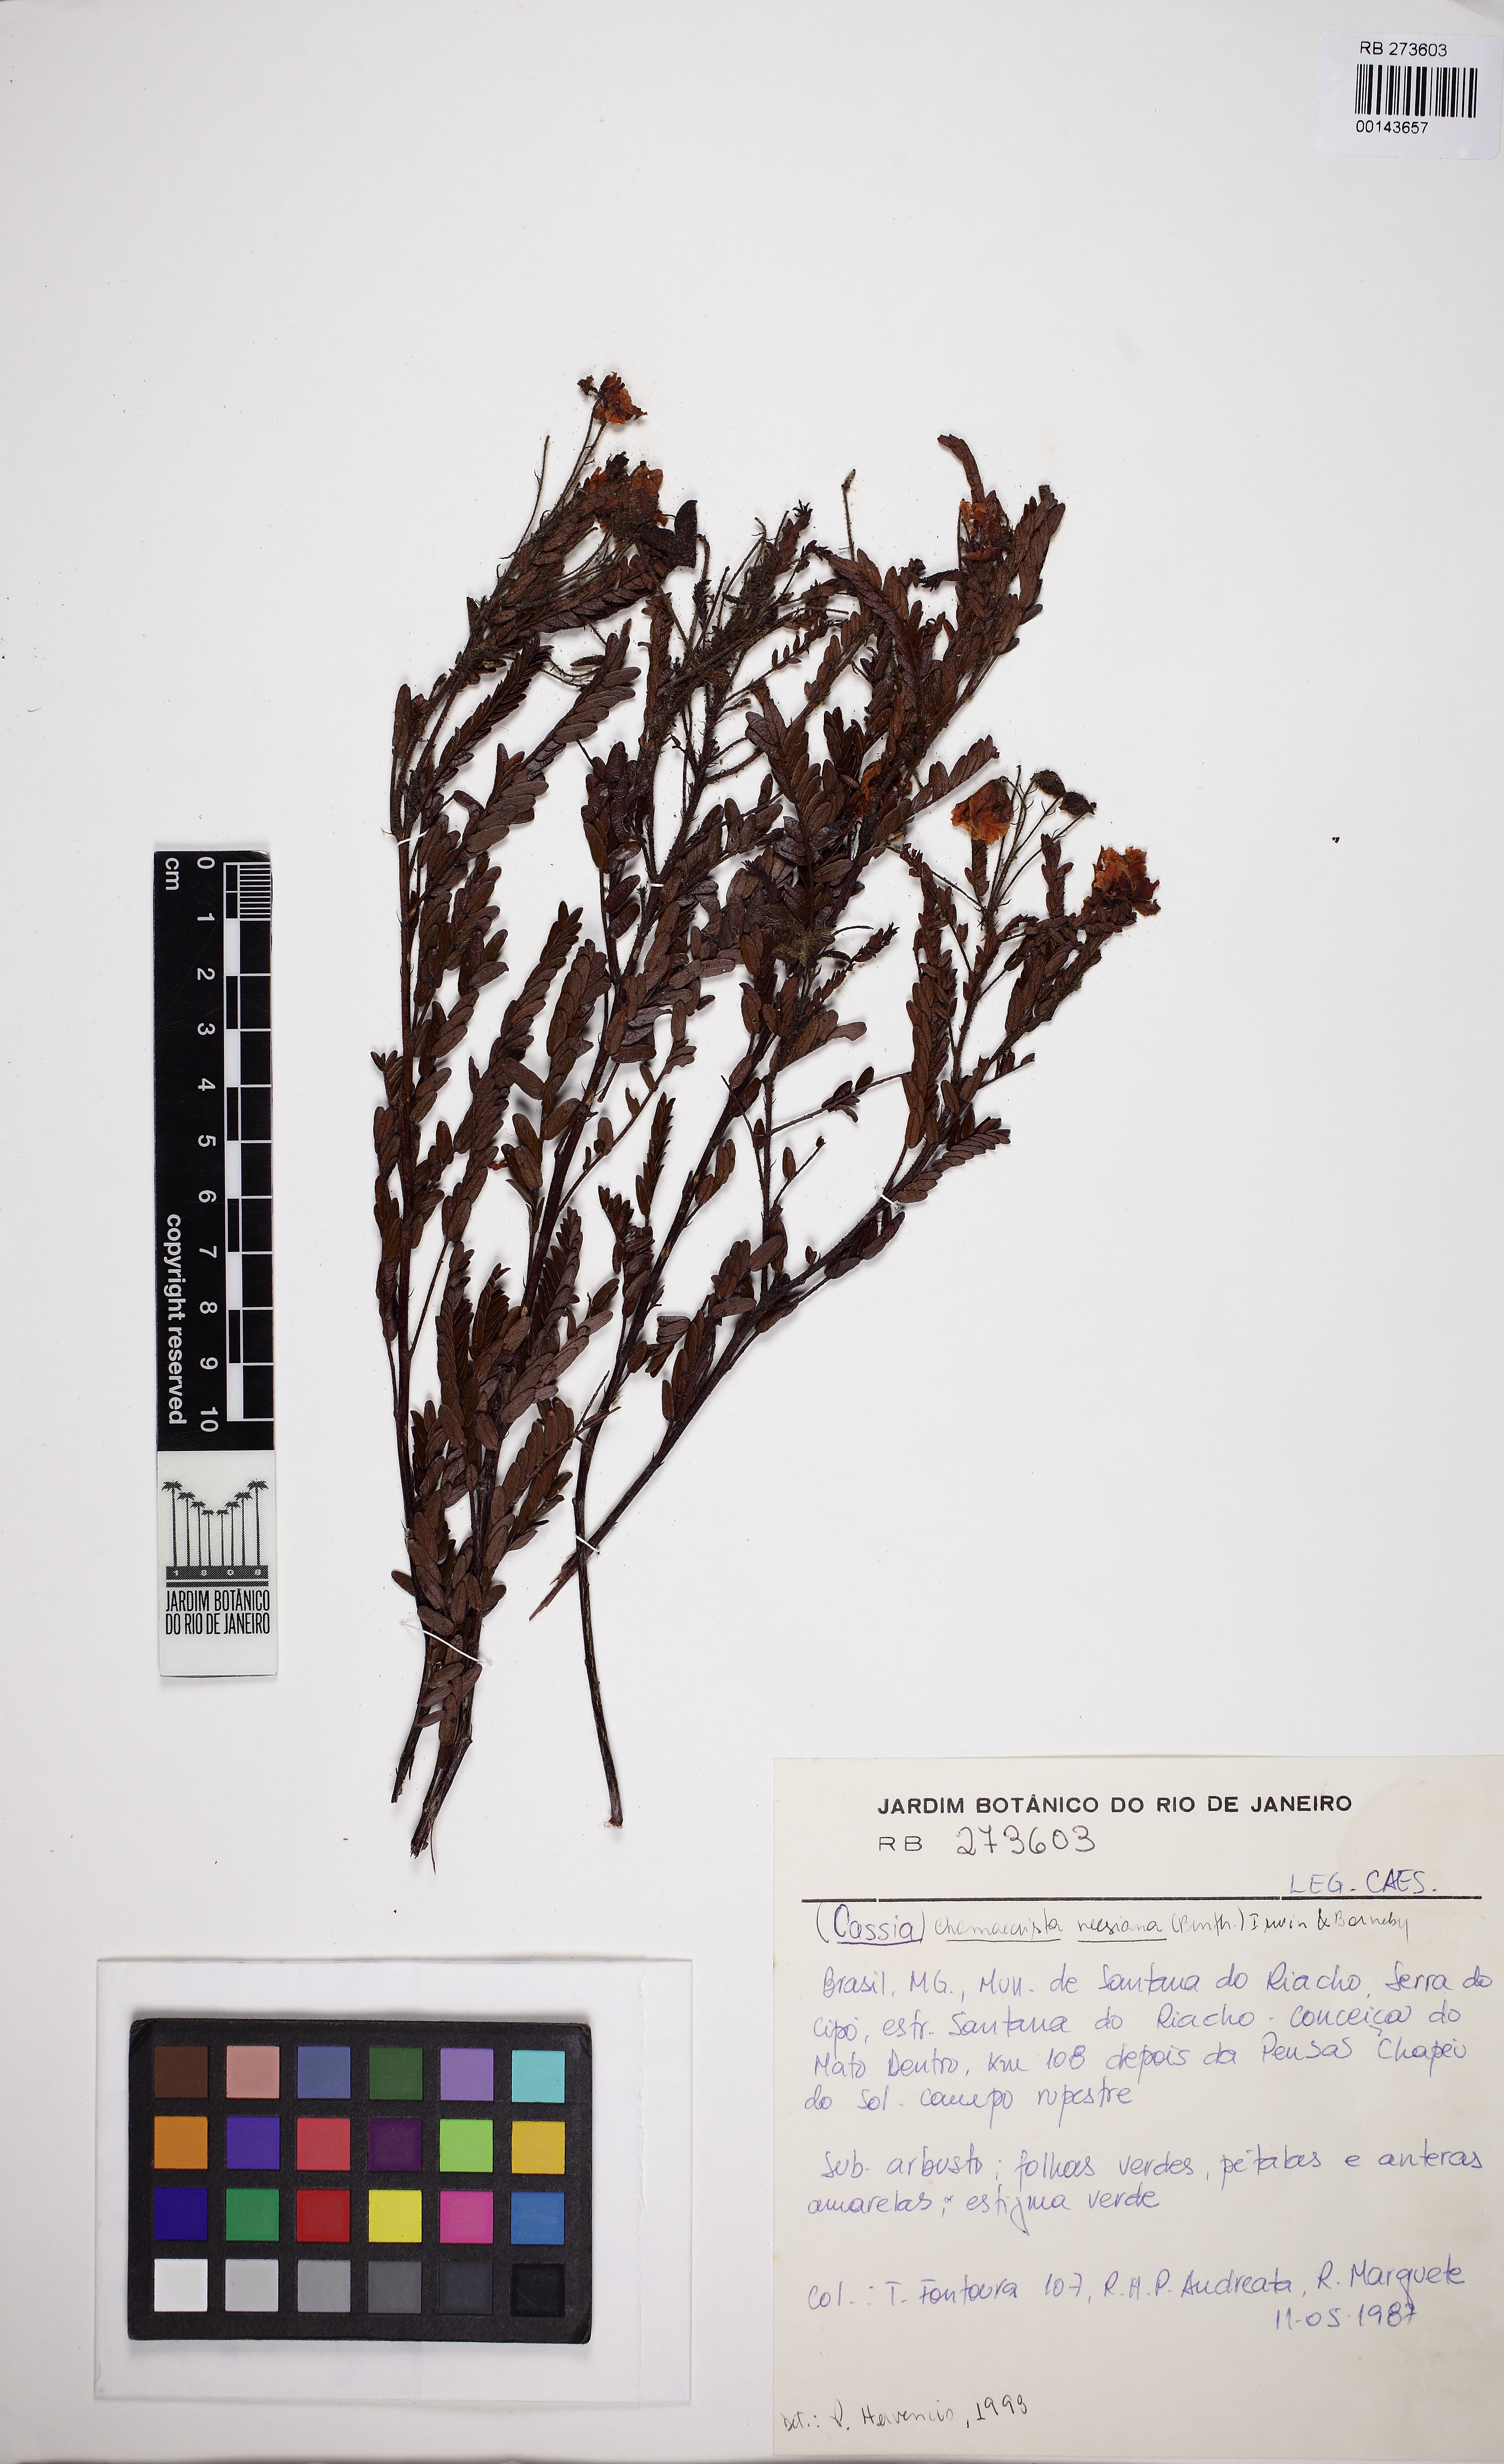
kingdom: Plantae
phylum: Tracheophyta
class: Magnoliopsida
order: Fabales
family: Fabaceae
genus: Chamaecrista
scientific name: Chamaecrista neesiana
